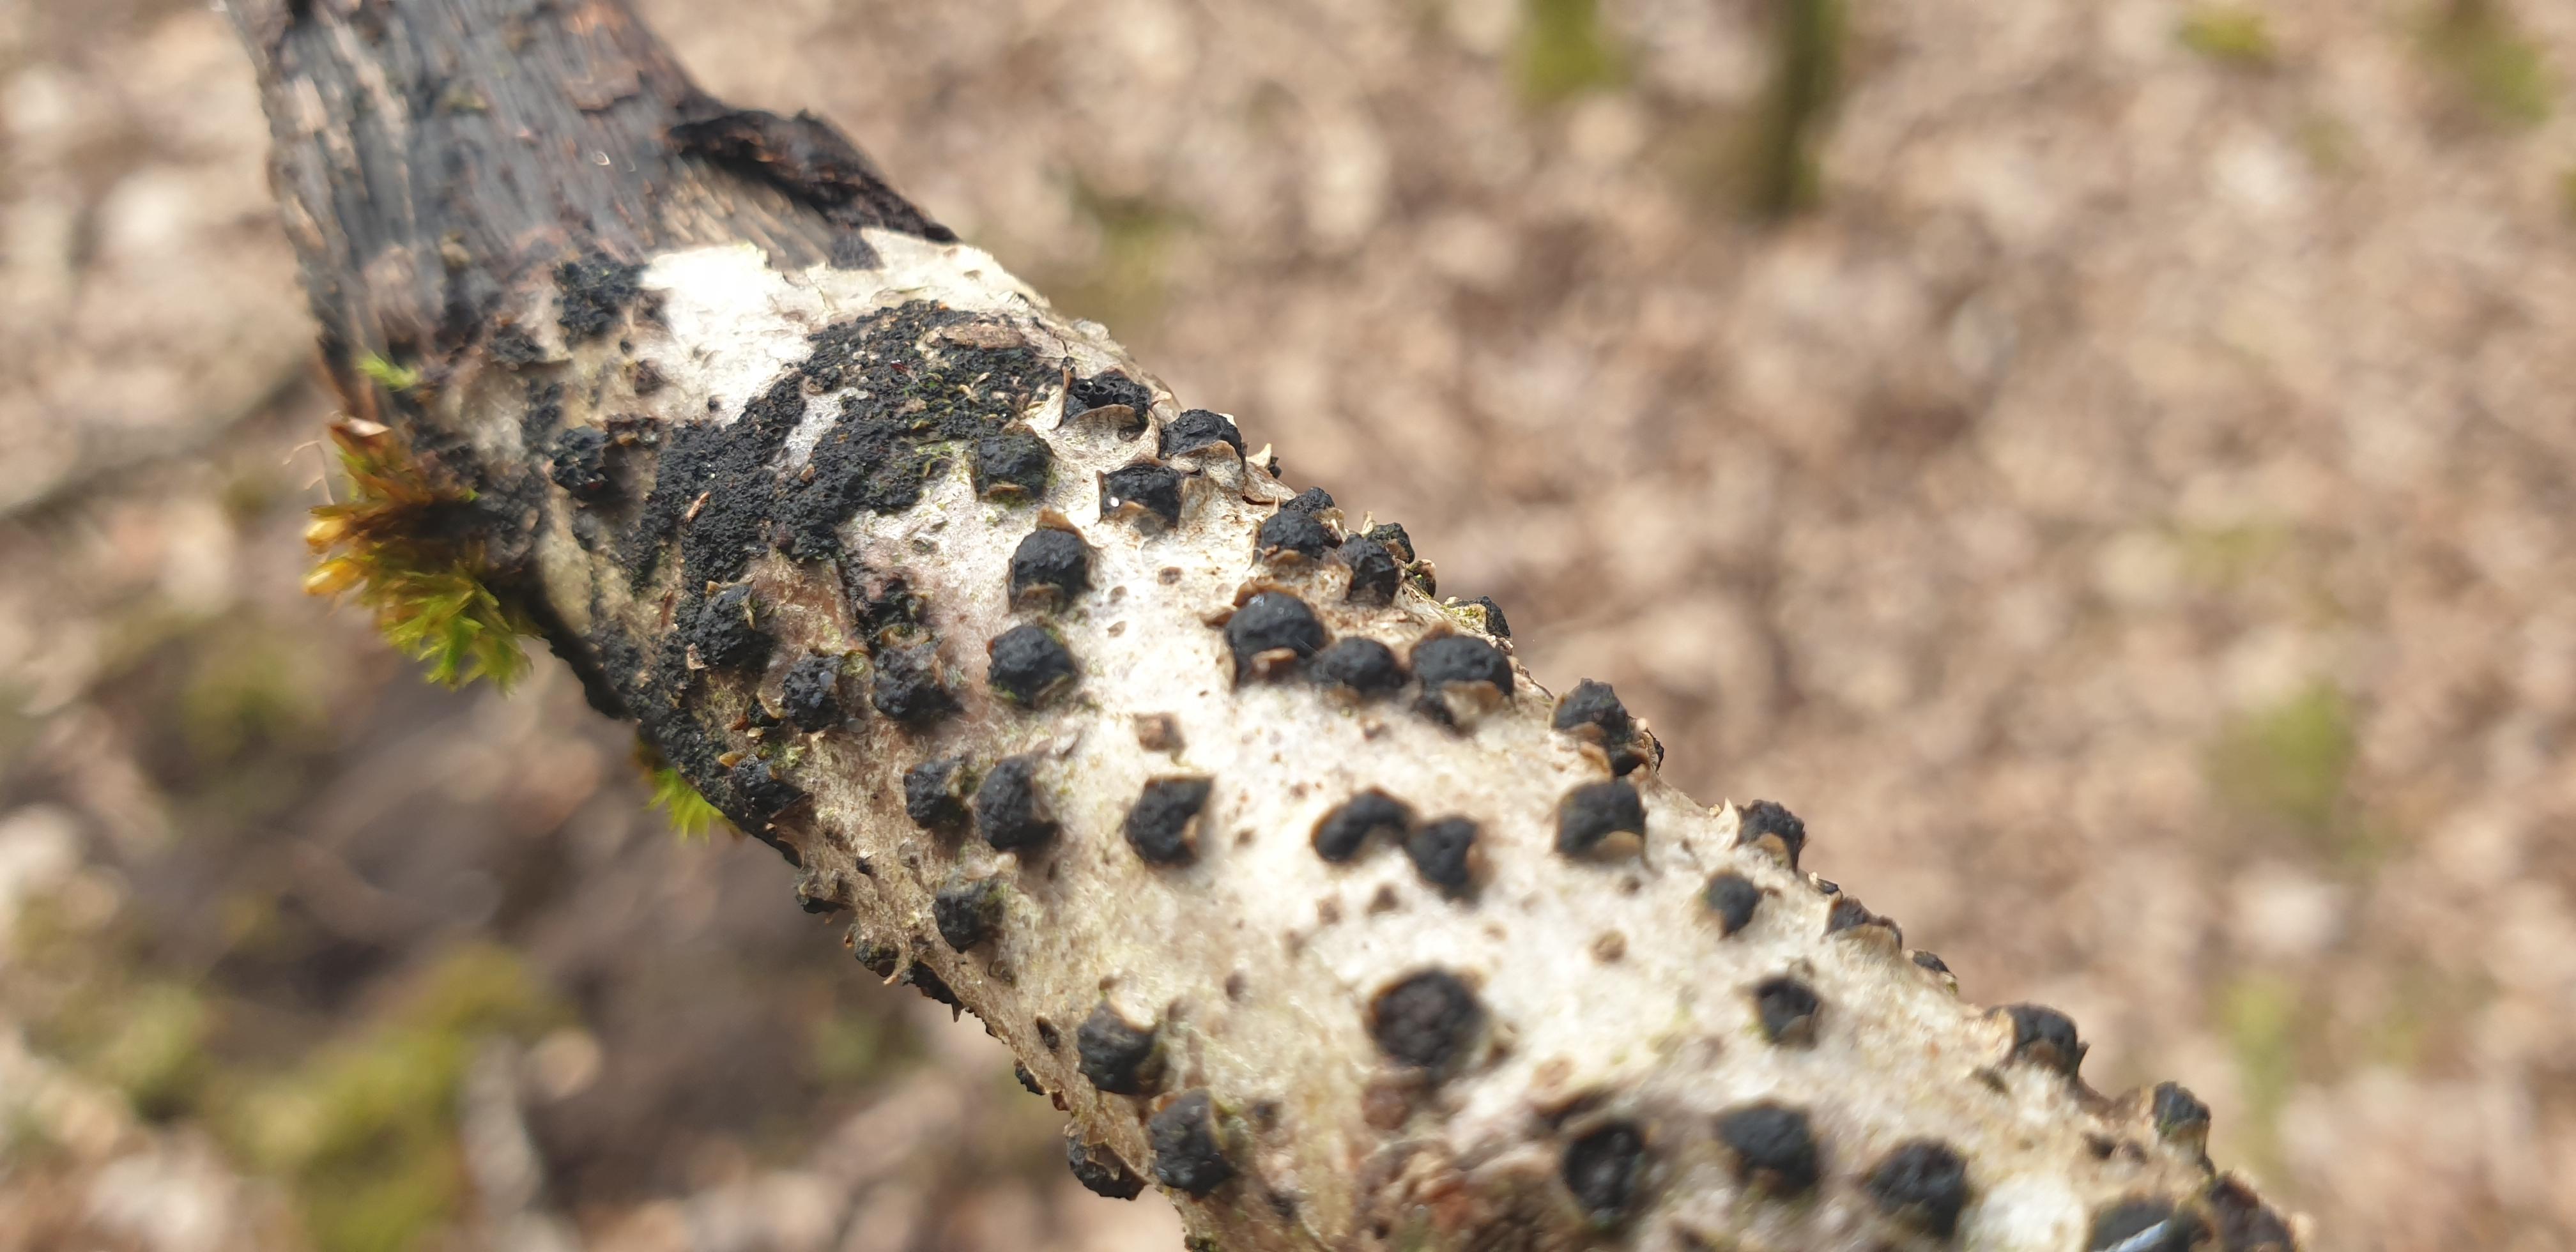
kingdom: Fungi
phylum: Ascomycota
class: Sordariomycetes
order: Xylariales
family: Diatrypaceae
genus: Diatrypella
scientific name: Diatrypella quercina
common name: ege-kulskorpe
